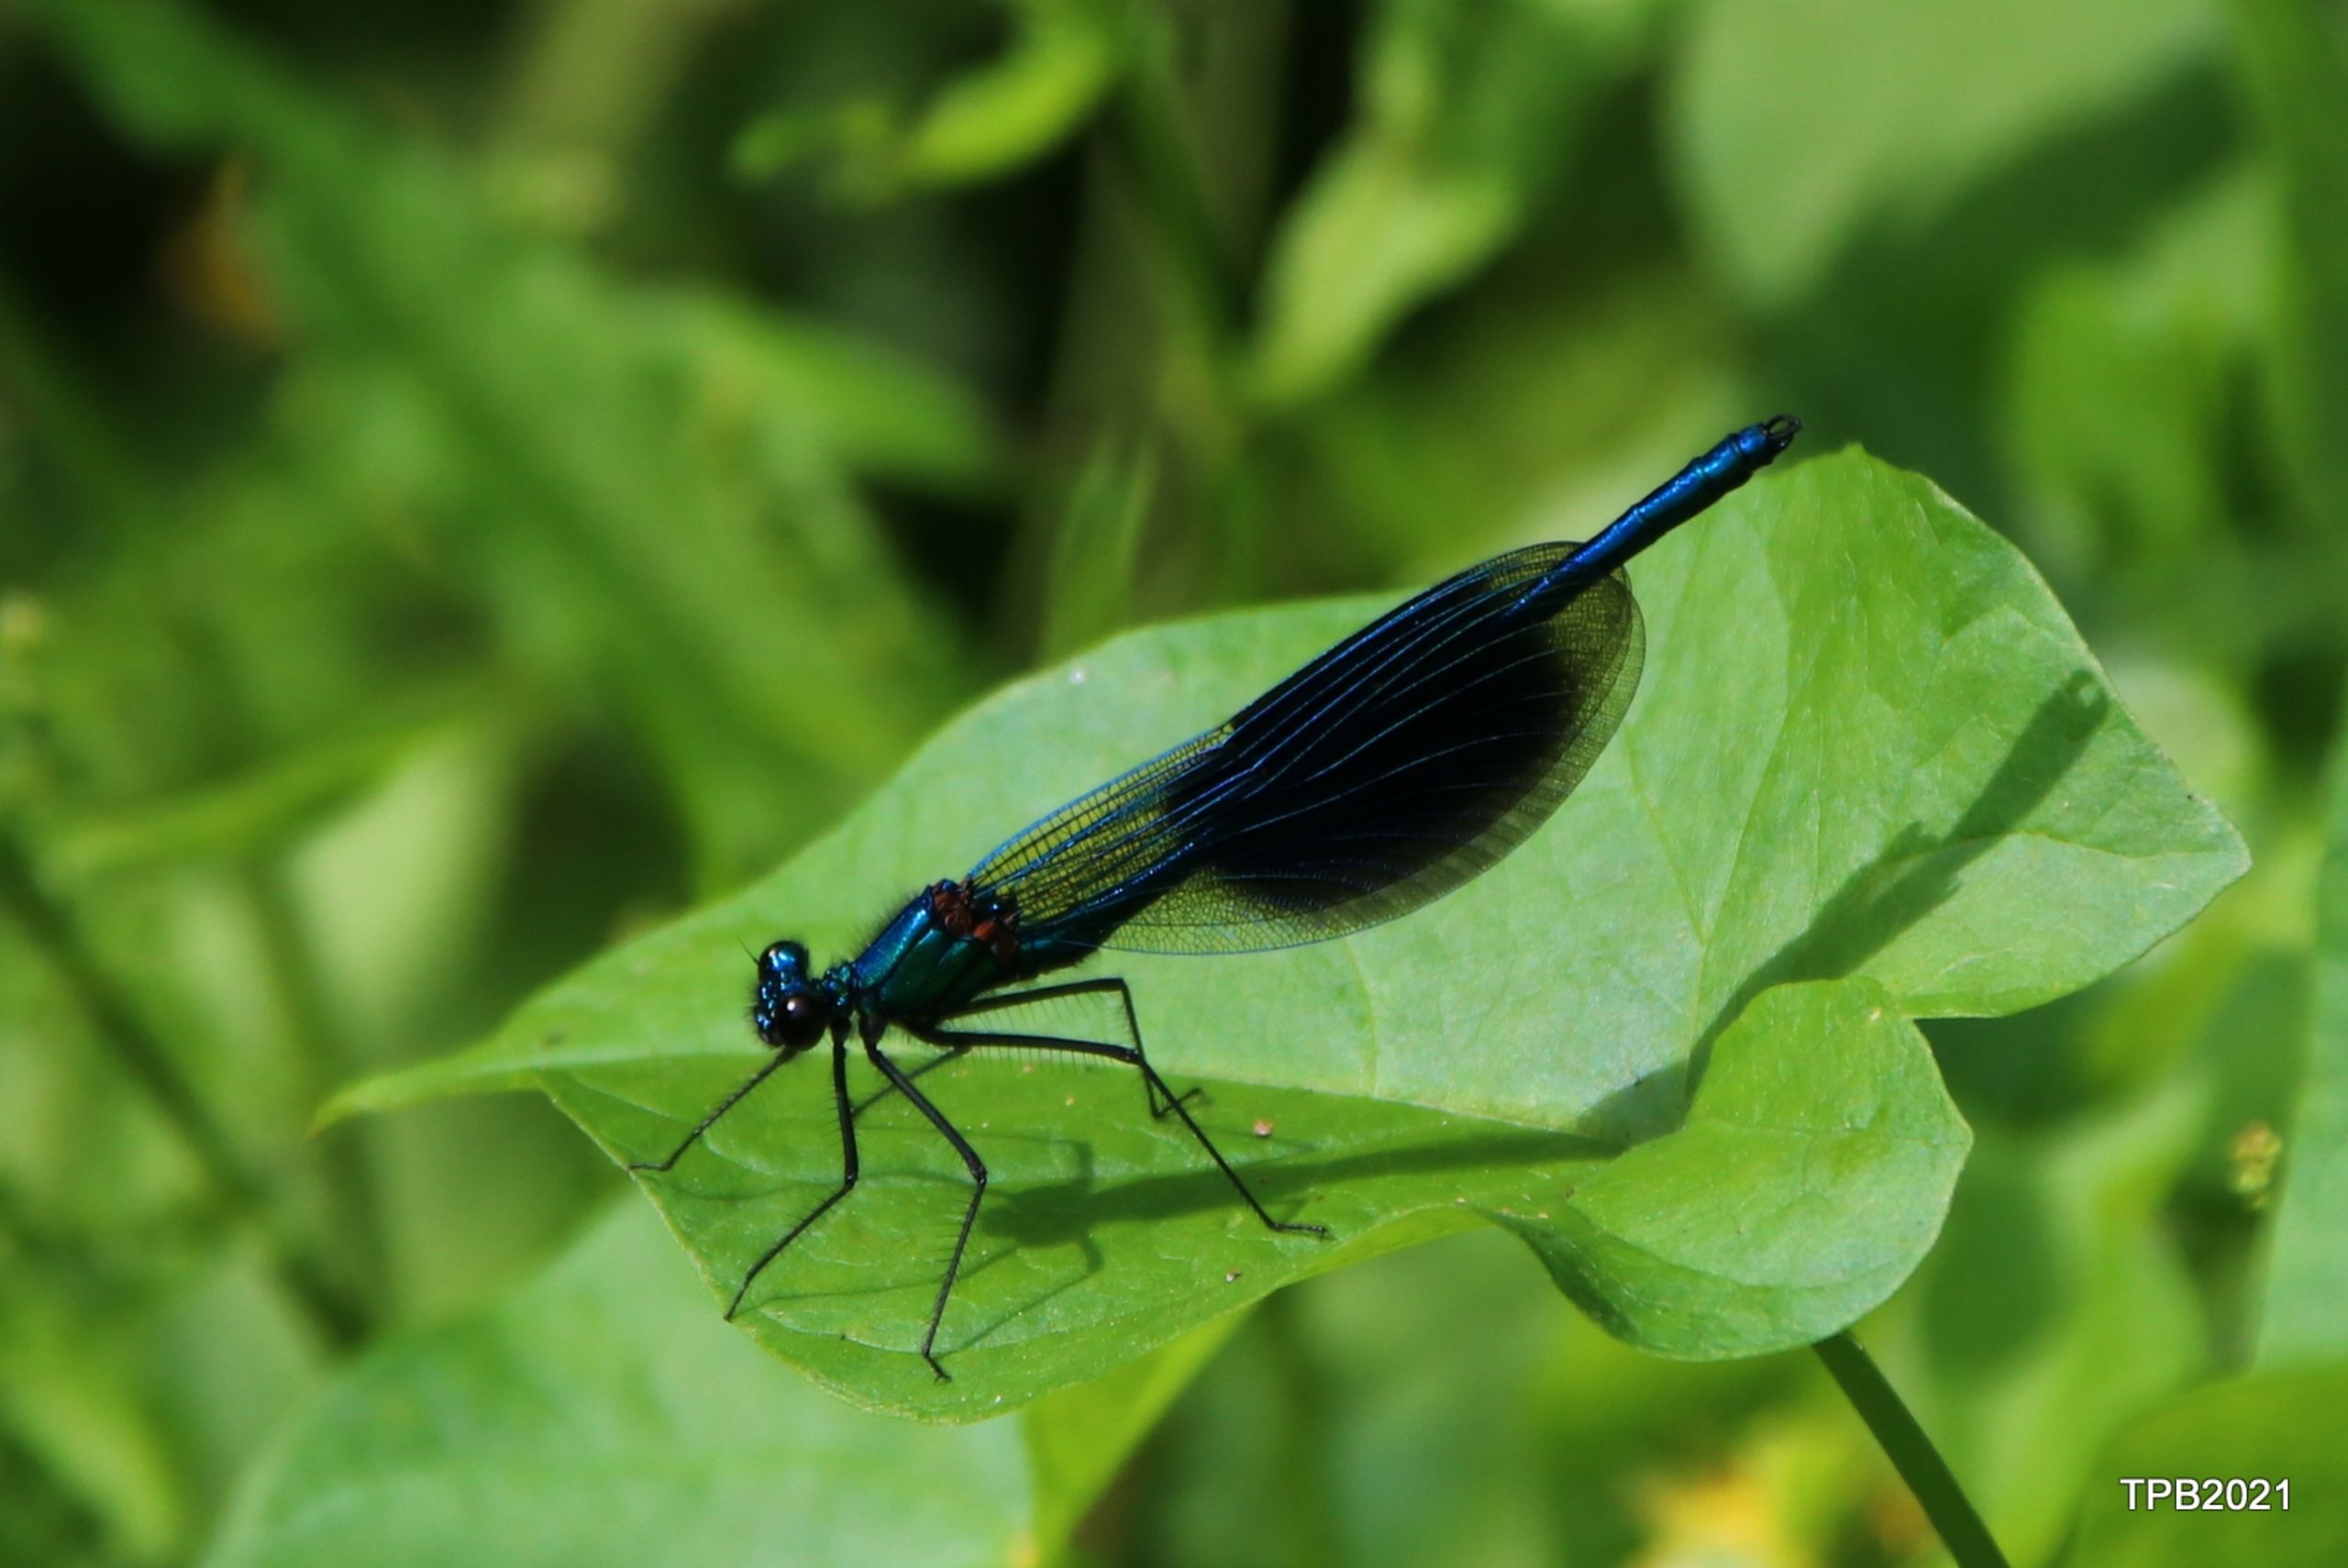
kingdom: Animalia
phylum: Arthropoda
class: Insecta
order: Odonata
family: Calopterygidae
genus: Calopteryx
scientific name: Calopteryx splendens
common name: Blåbåndet pragtvandnymfe
